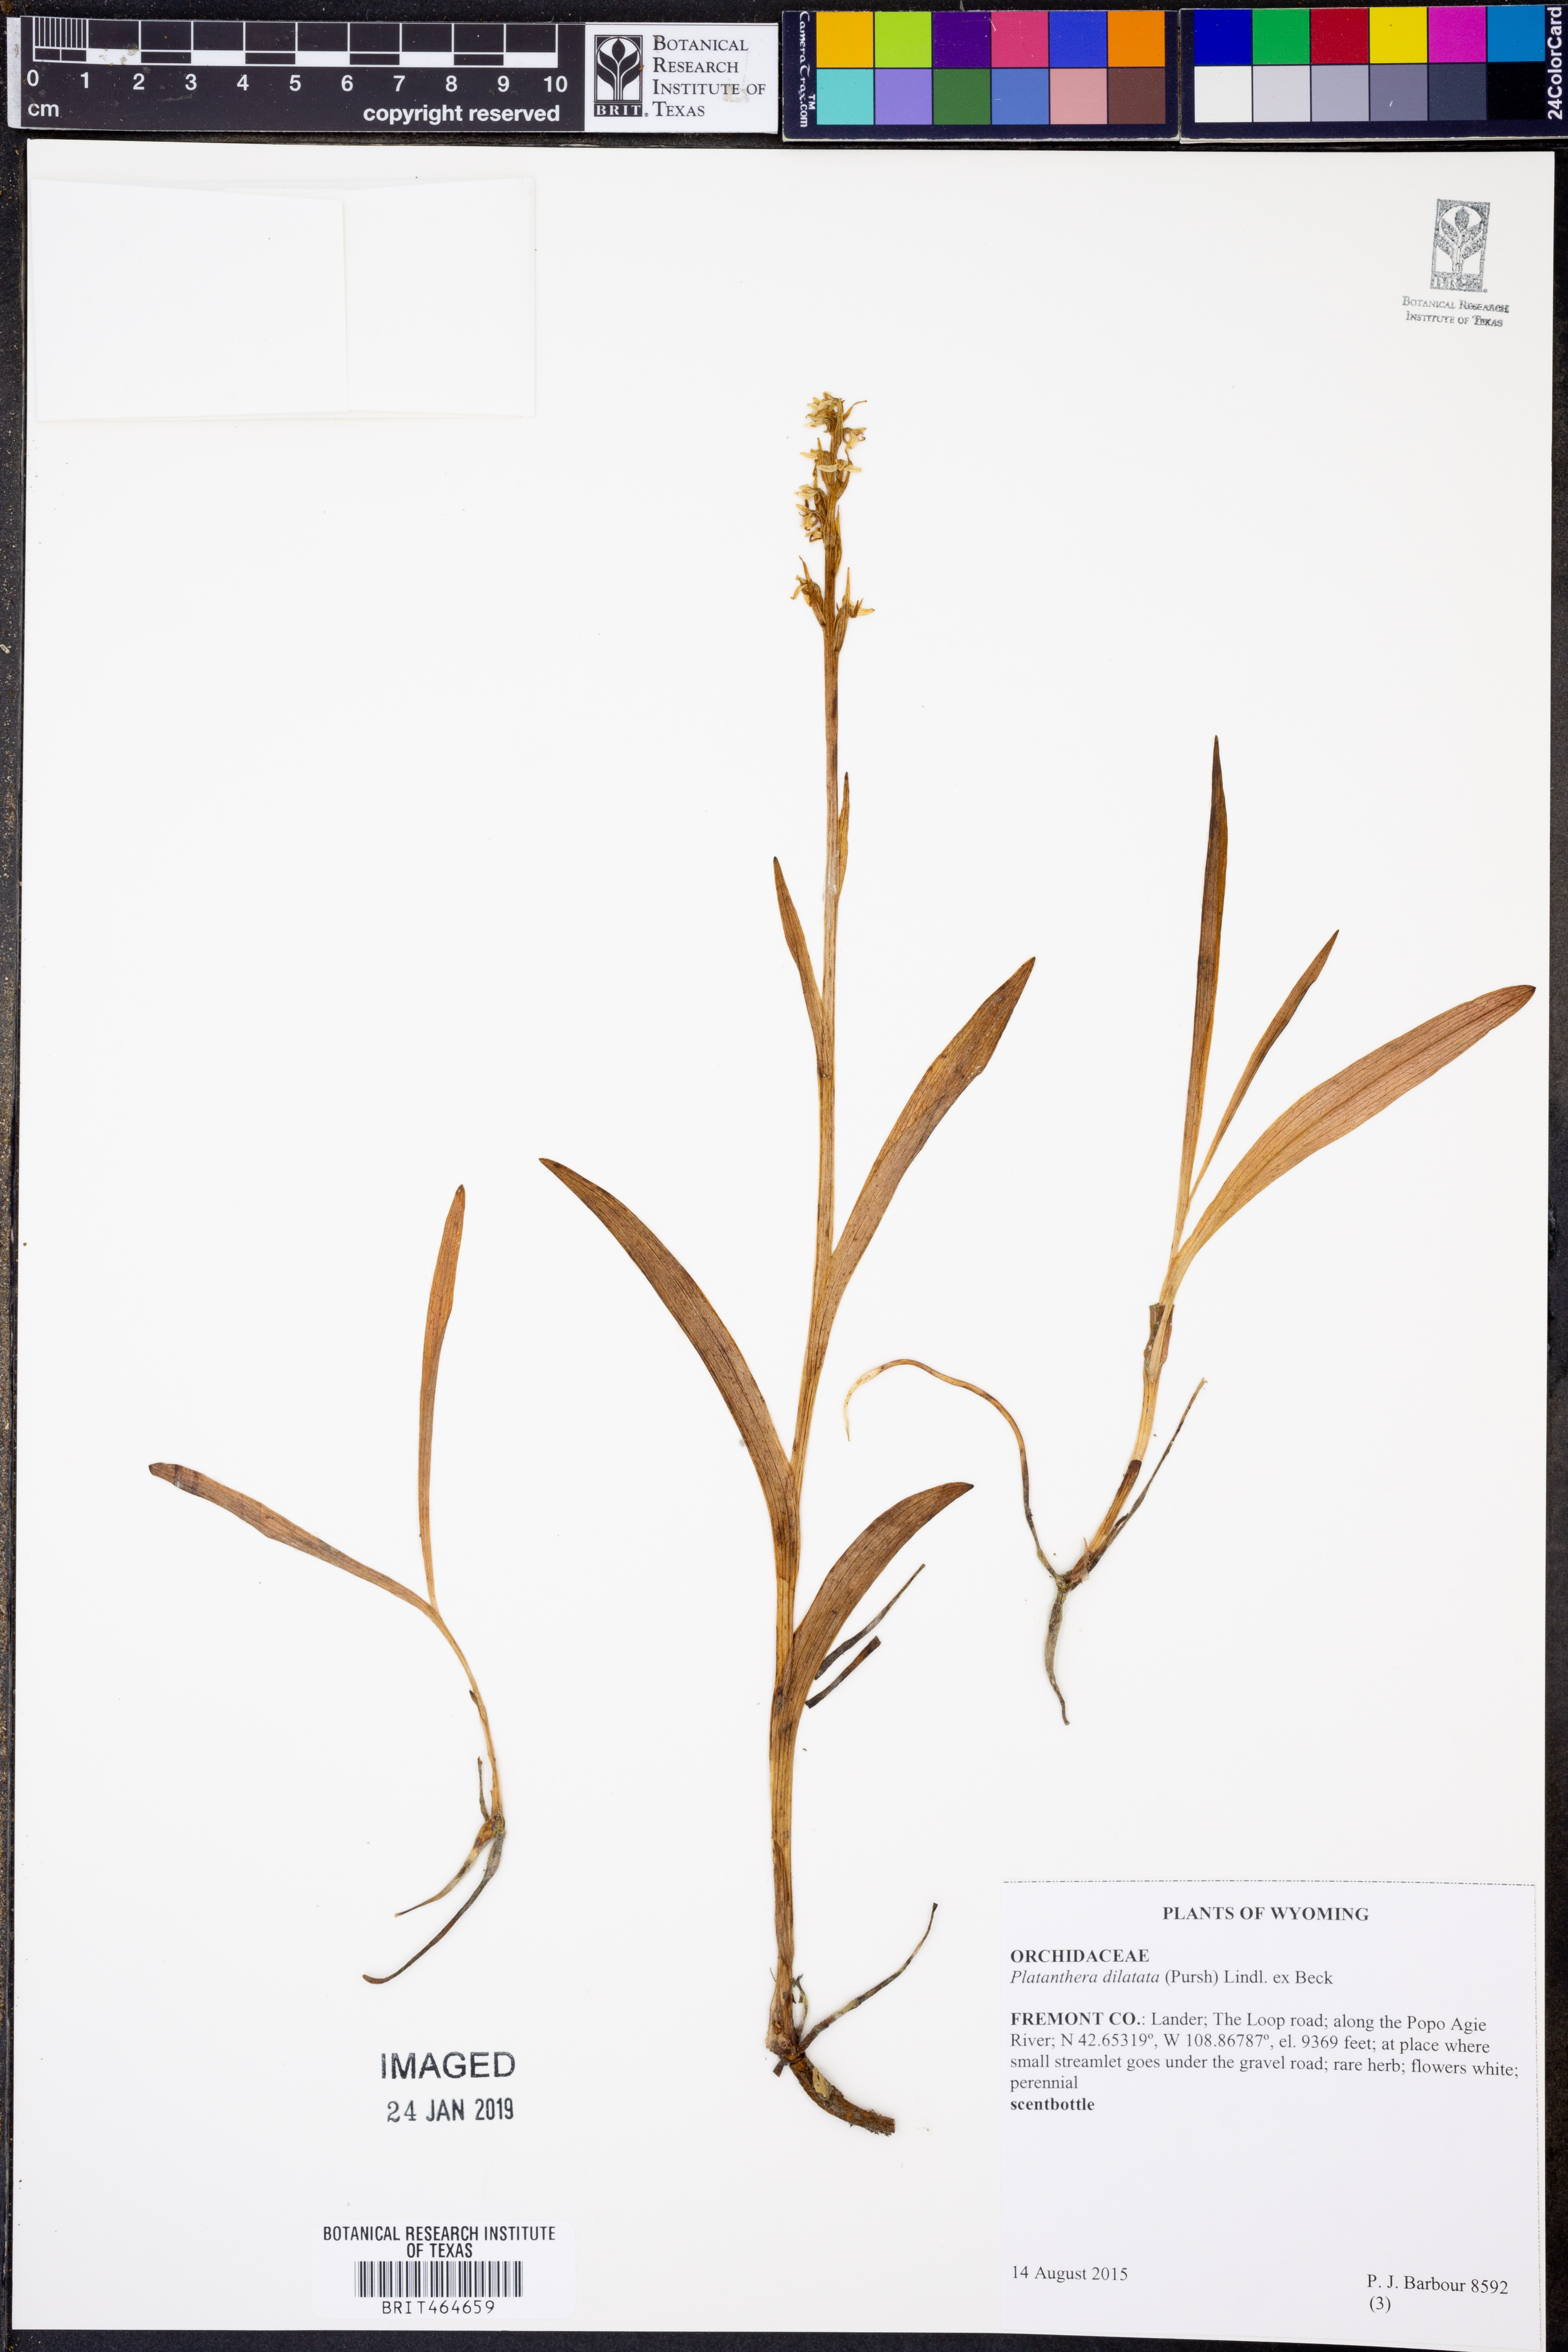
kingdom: Plantae
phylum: Tracheophyta
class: Liliopsida
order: Asparagales
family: Orchidaceae
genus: Platanthera
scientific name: Platanthera dilatata
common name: Bog candles
